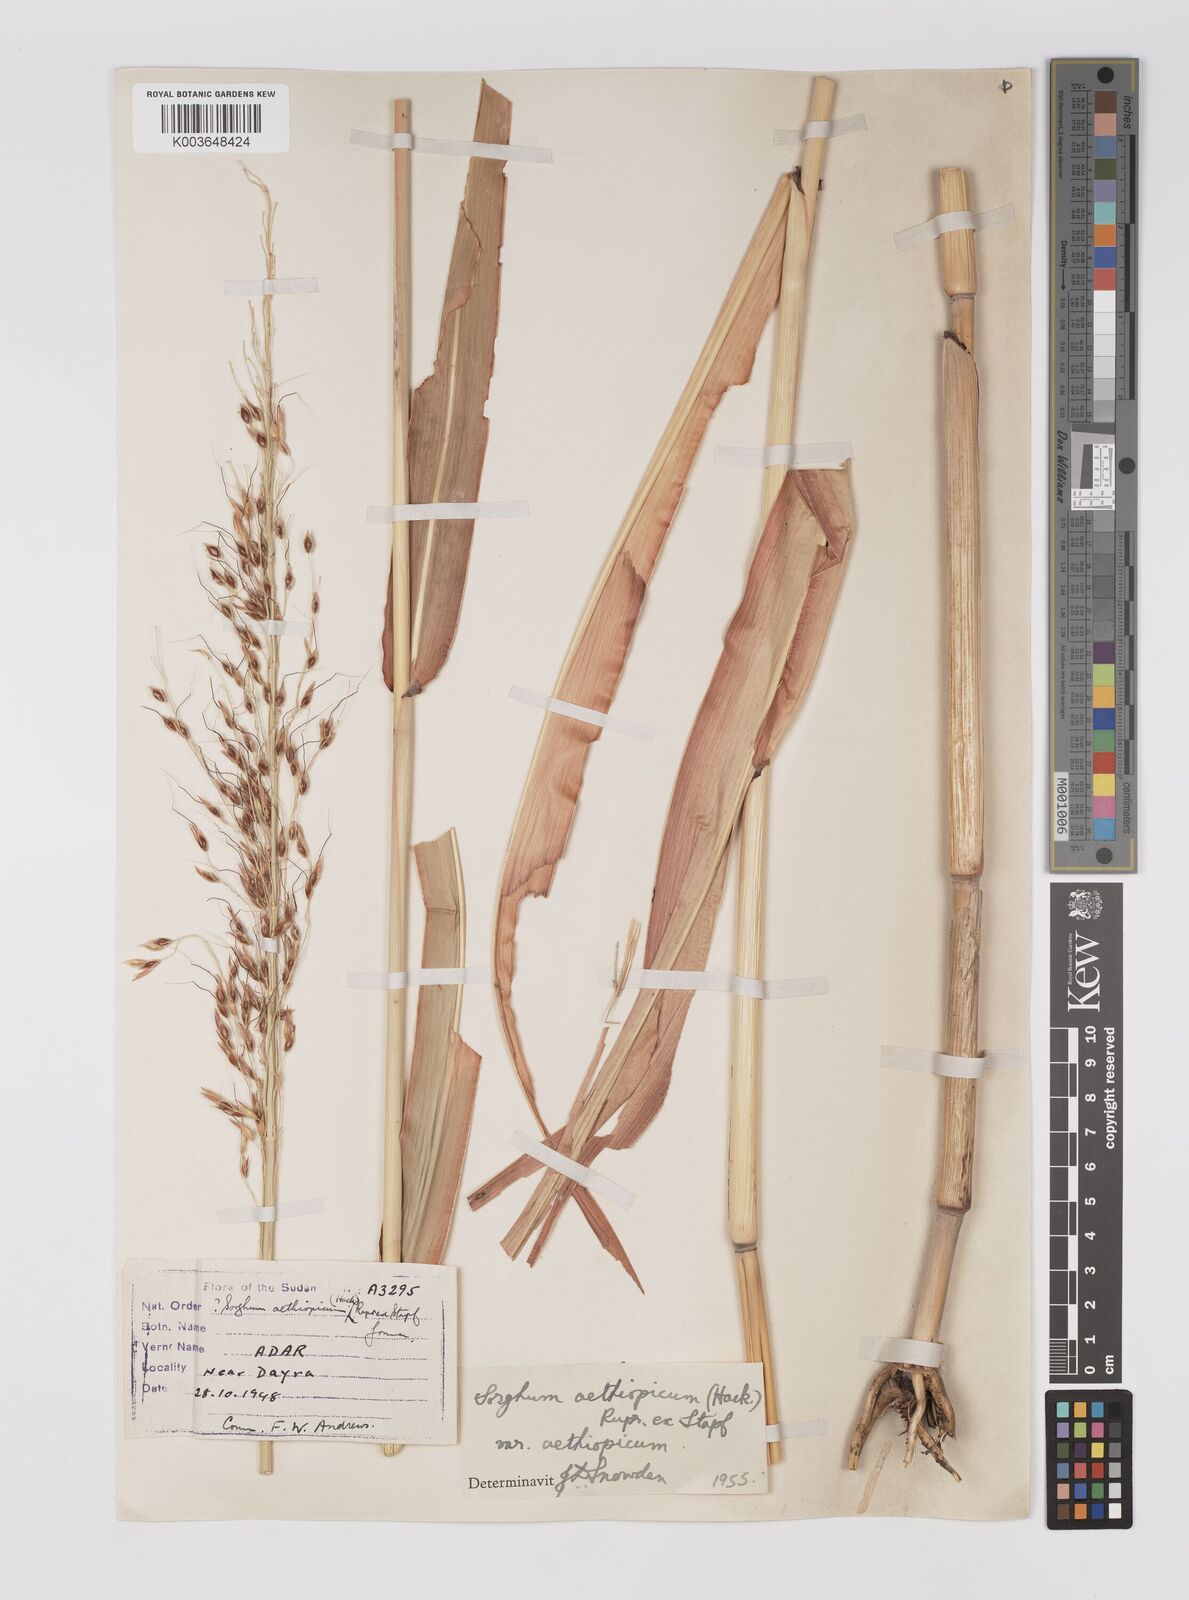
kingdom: Plantae
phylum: Tracheophyta
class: Liliopsida
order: Poales
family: Poaceae
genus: Sorghum
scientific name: Sorghum arundinaceum
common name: Sorghum
